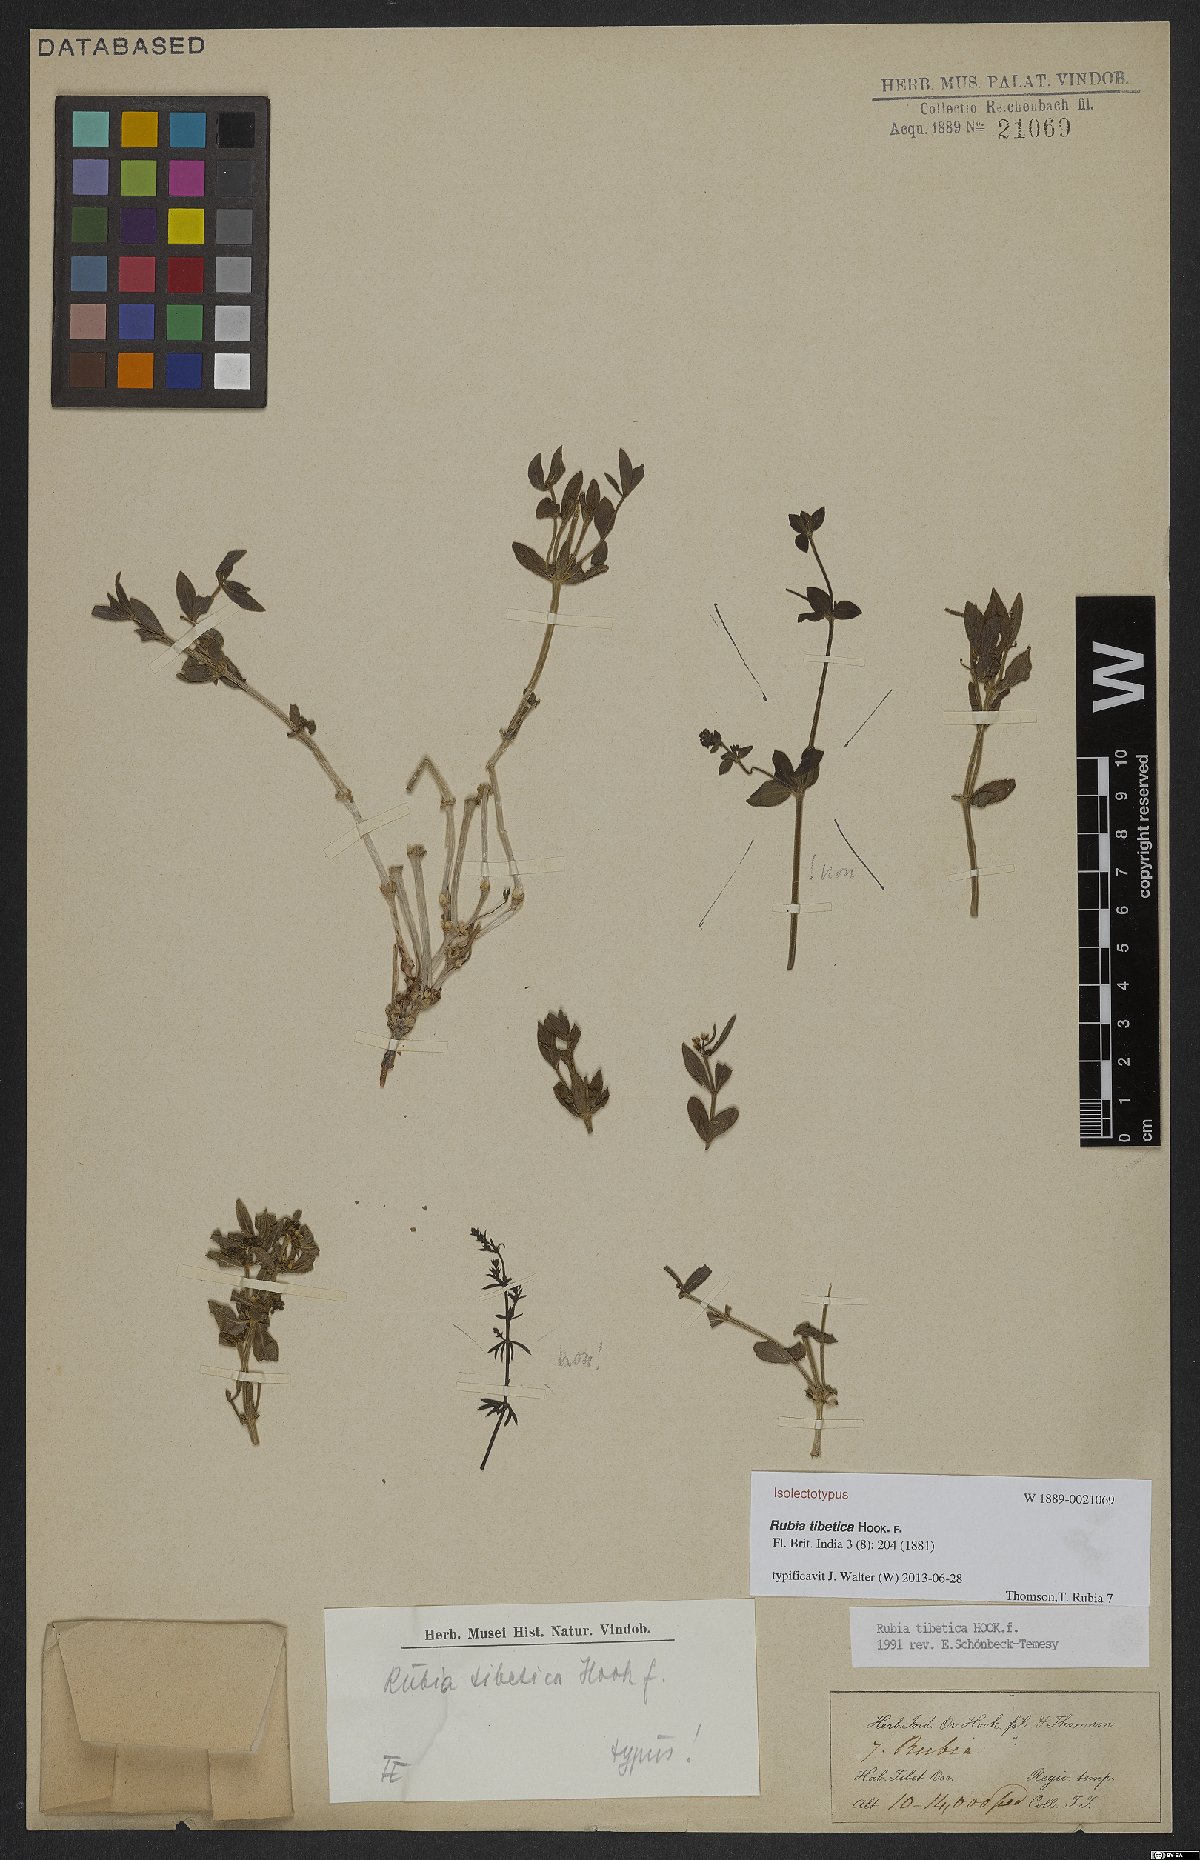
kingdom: Plantae
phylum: Tracheophyta
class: Magnoliopsida
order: Gentianales
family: Rubiaceae
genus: Rubia
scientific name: Rubia tibetica
